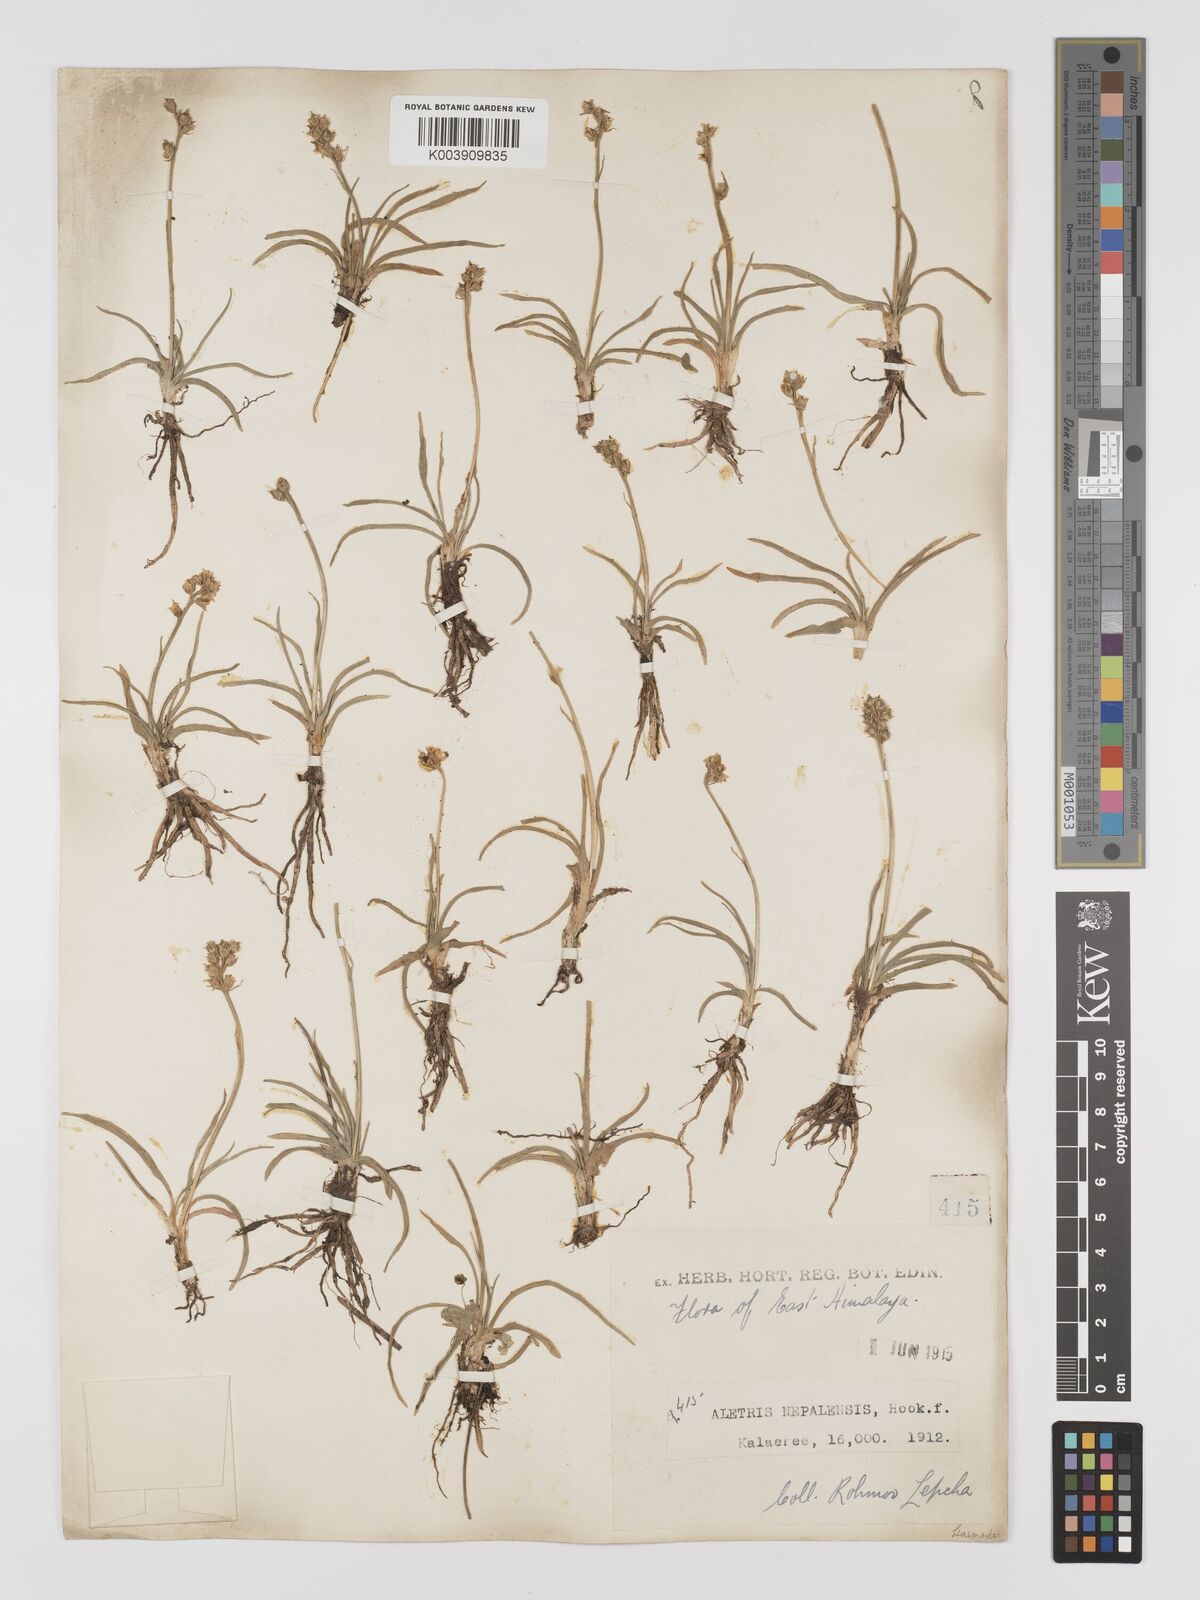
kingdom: Plantae
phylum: Tracheophyta
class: Liliopsida
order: Dioscoreales
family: Nartheciaceae
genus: Aletris
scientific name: Aletris pauciflora
